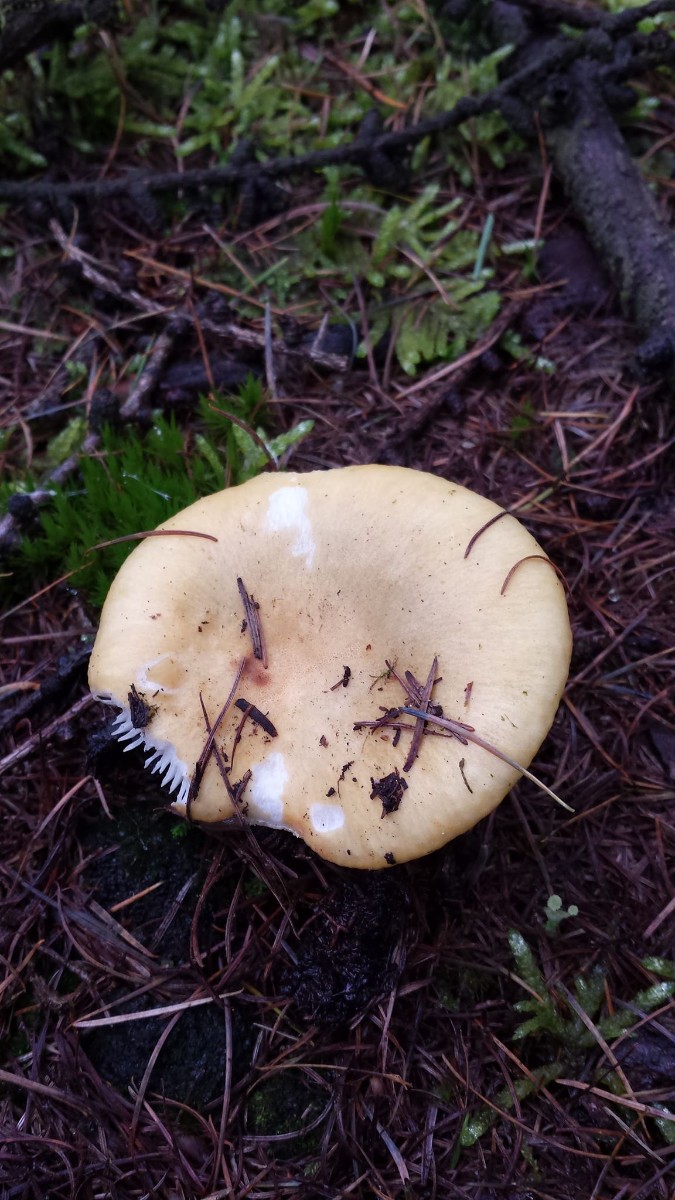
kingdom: Fungi
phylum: Basidiomycota
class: Agaricomycetes
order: Russulales
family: Russulaceae
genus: Russula
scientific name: Russula ochroleuca
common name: okkergul skørhat
